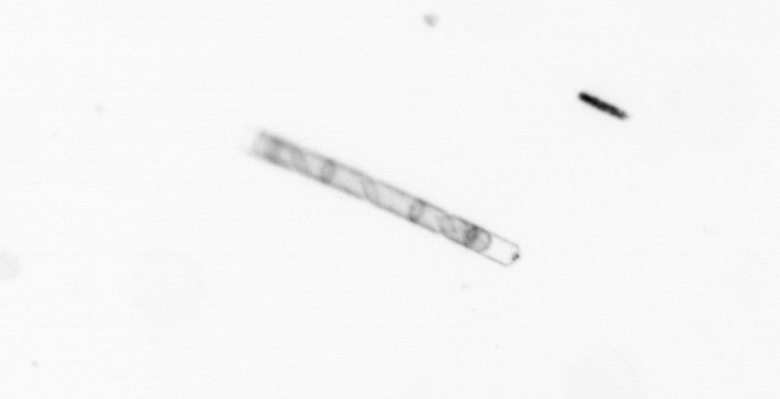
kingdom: Chromista
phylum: Ochrophyta
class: Bacillariophyceae
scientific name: Bacillariophyceae
